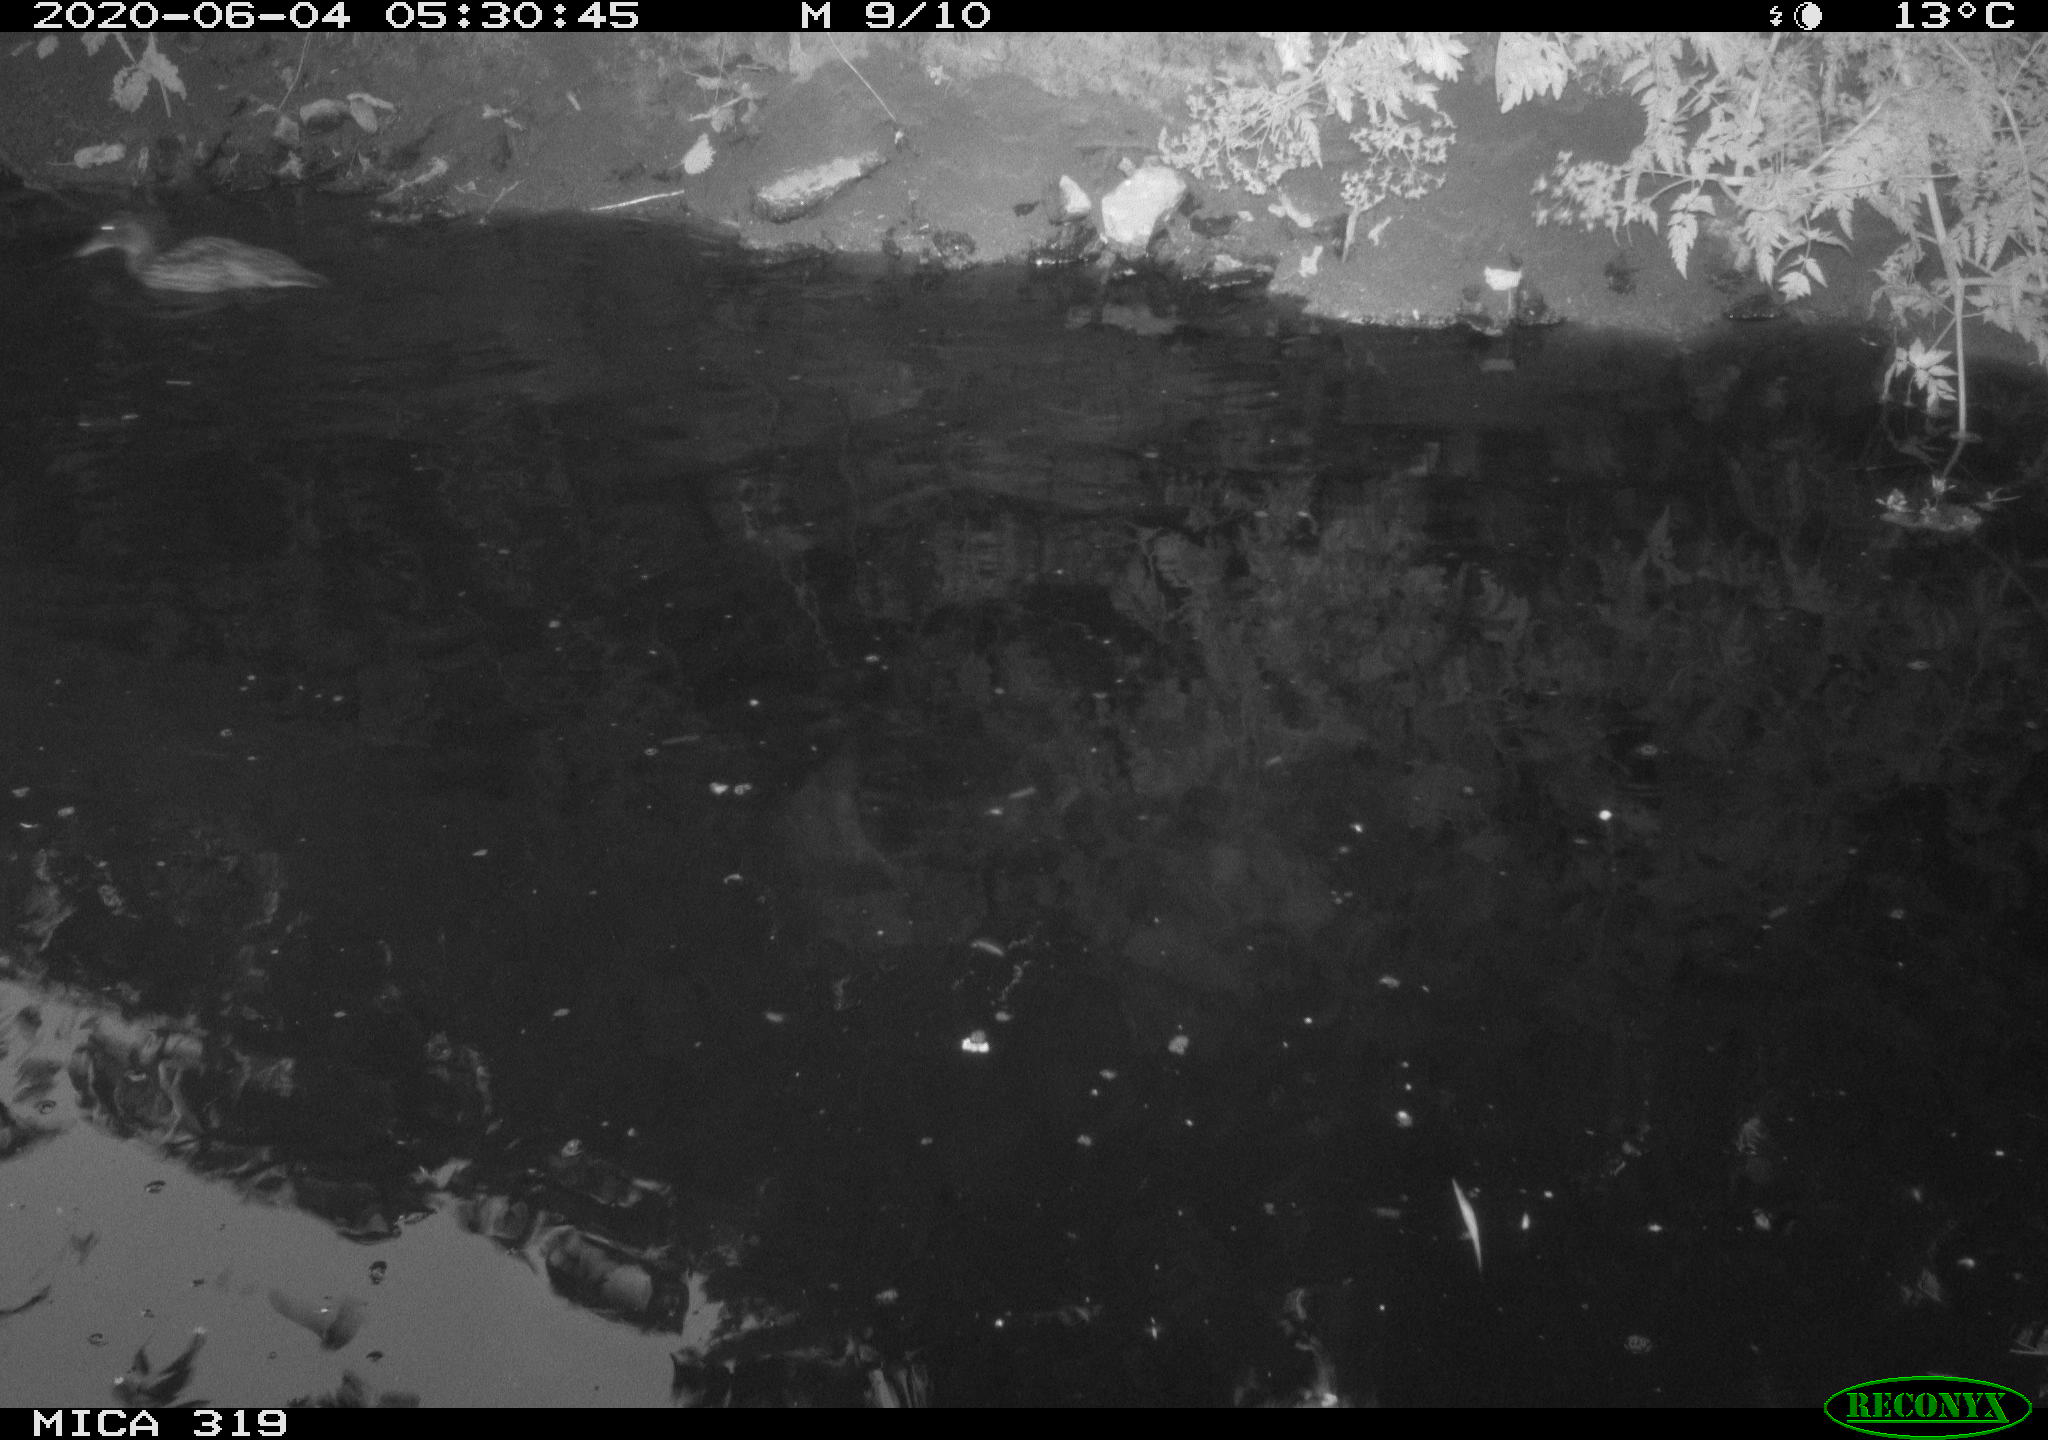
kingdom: Animalia
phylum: Chordata
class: Aves
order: Anseriformes
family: Anatidae
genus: Anas
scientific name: Anas platyrhynchos
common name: Mallard
